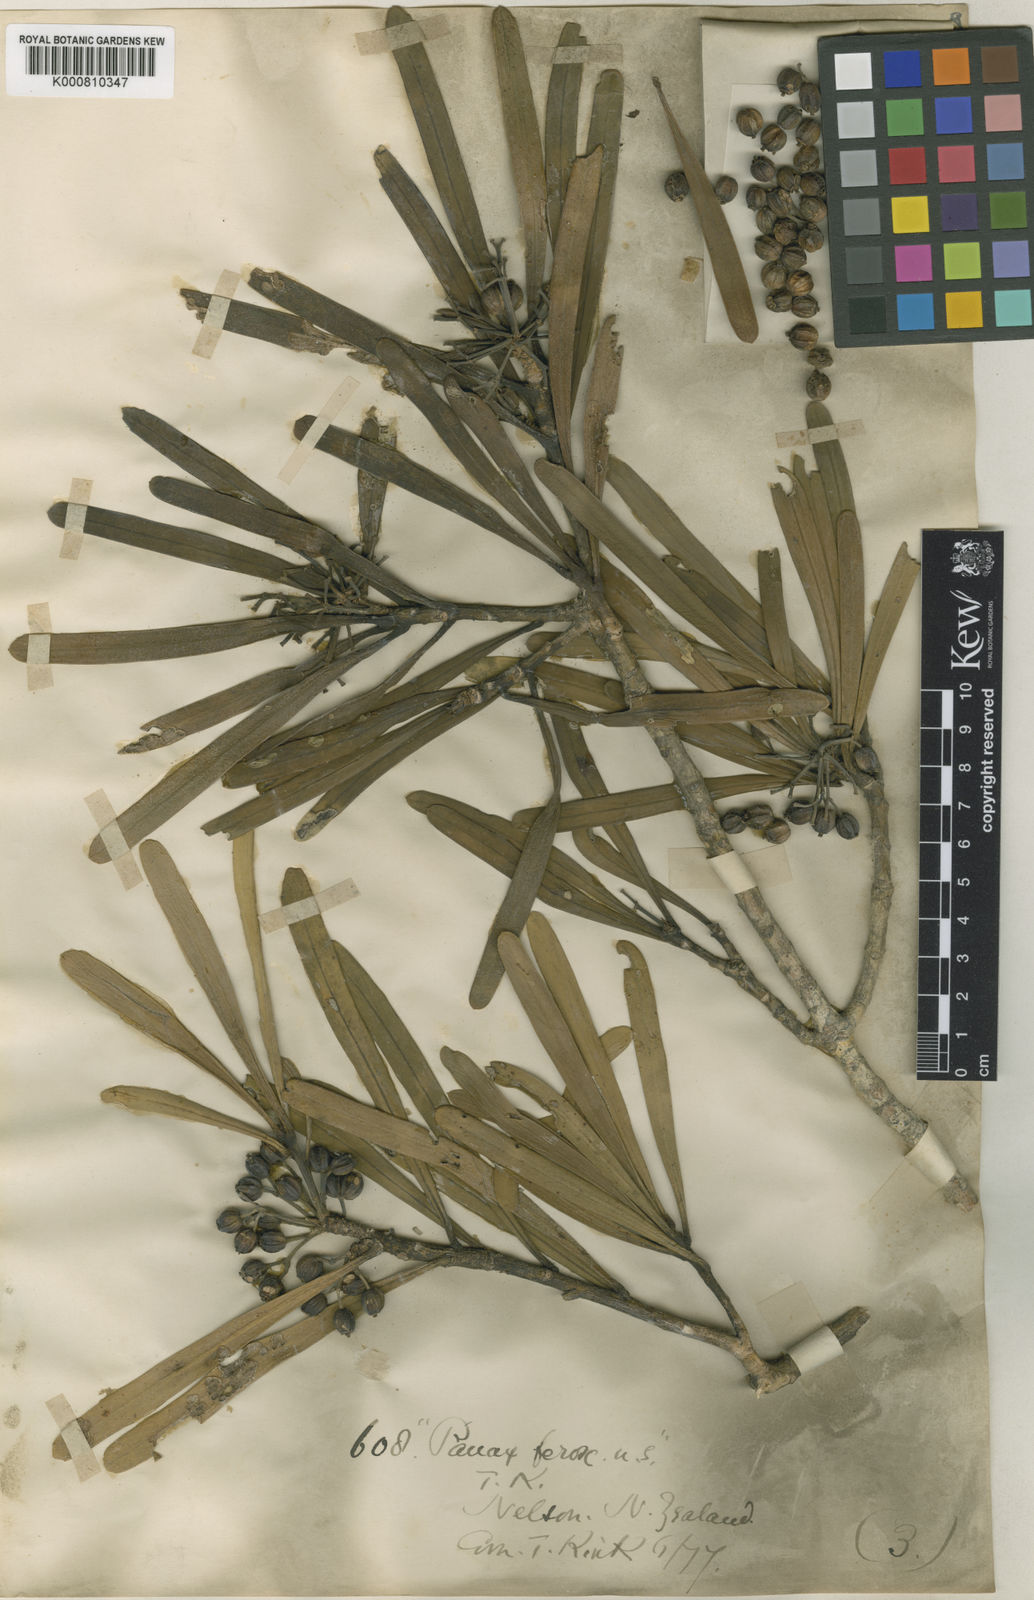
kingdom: Plantae
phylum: Tracheophyta
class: Magnoliopsida
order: Apiales
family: Araliaceae
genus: Pseudopanax
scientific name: Pseudopanax ferox
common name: Fierce lancewood
